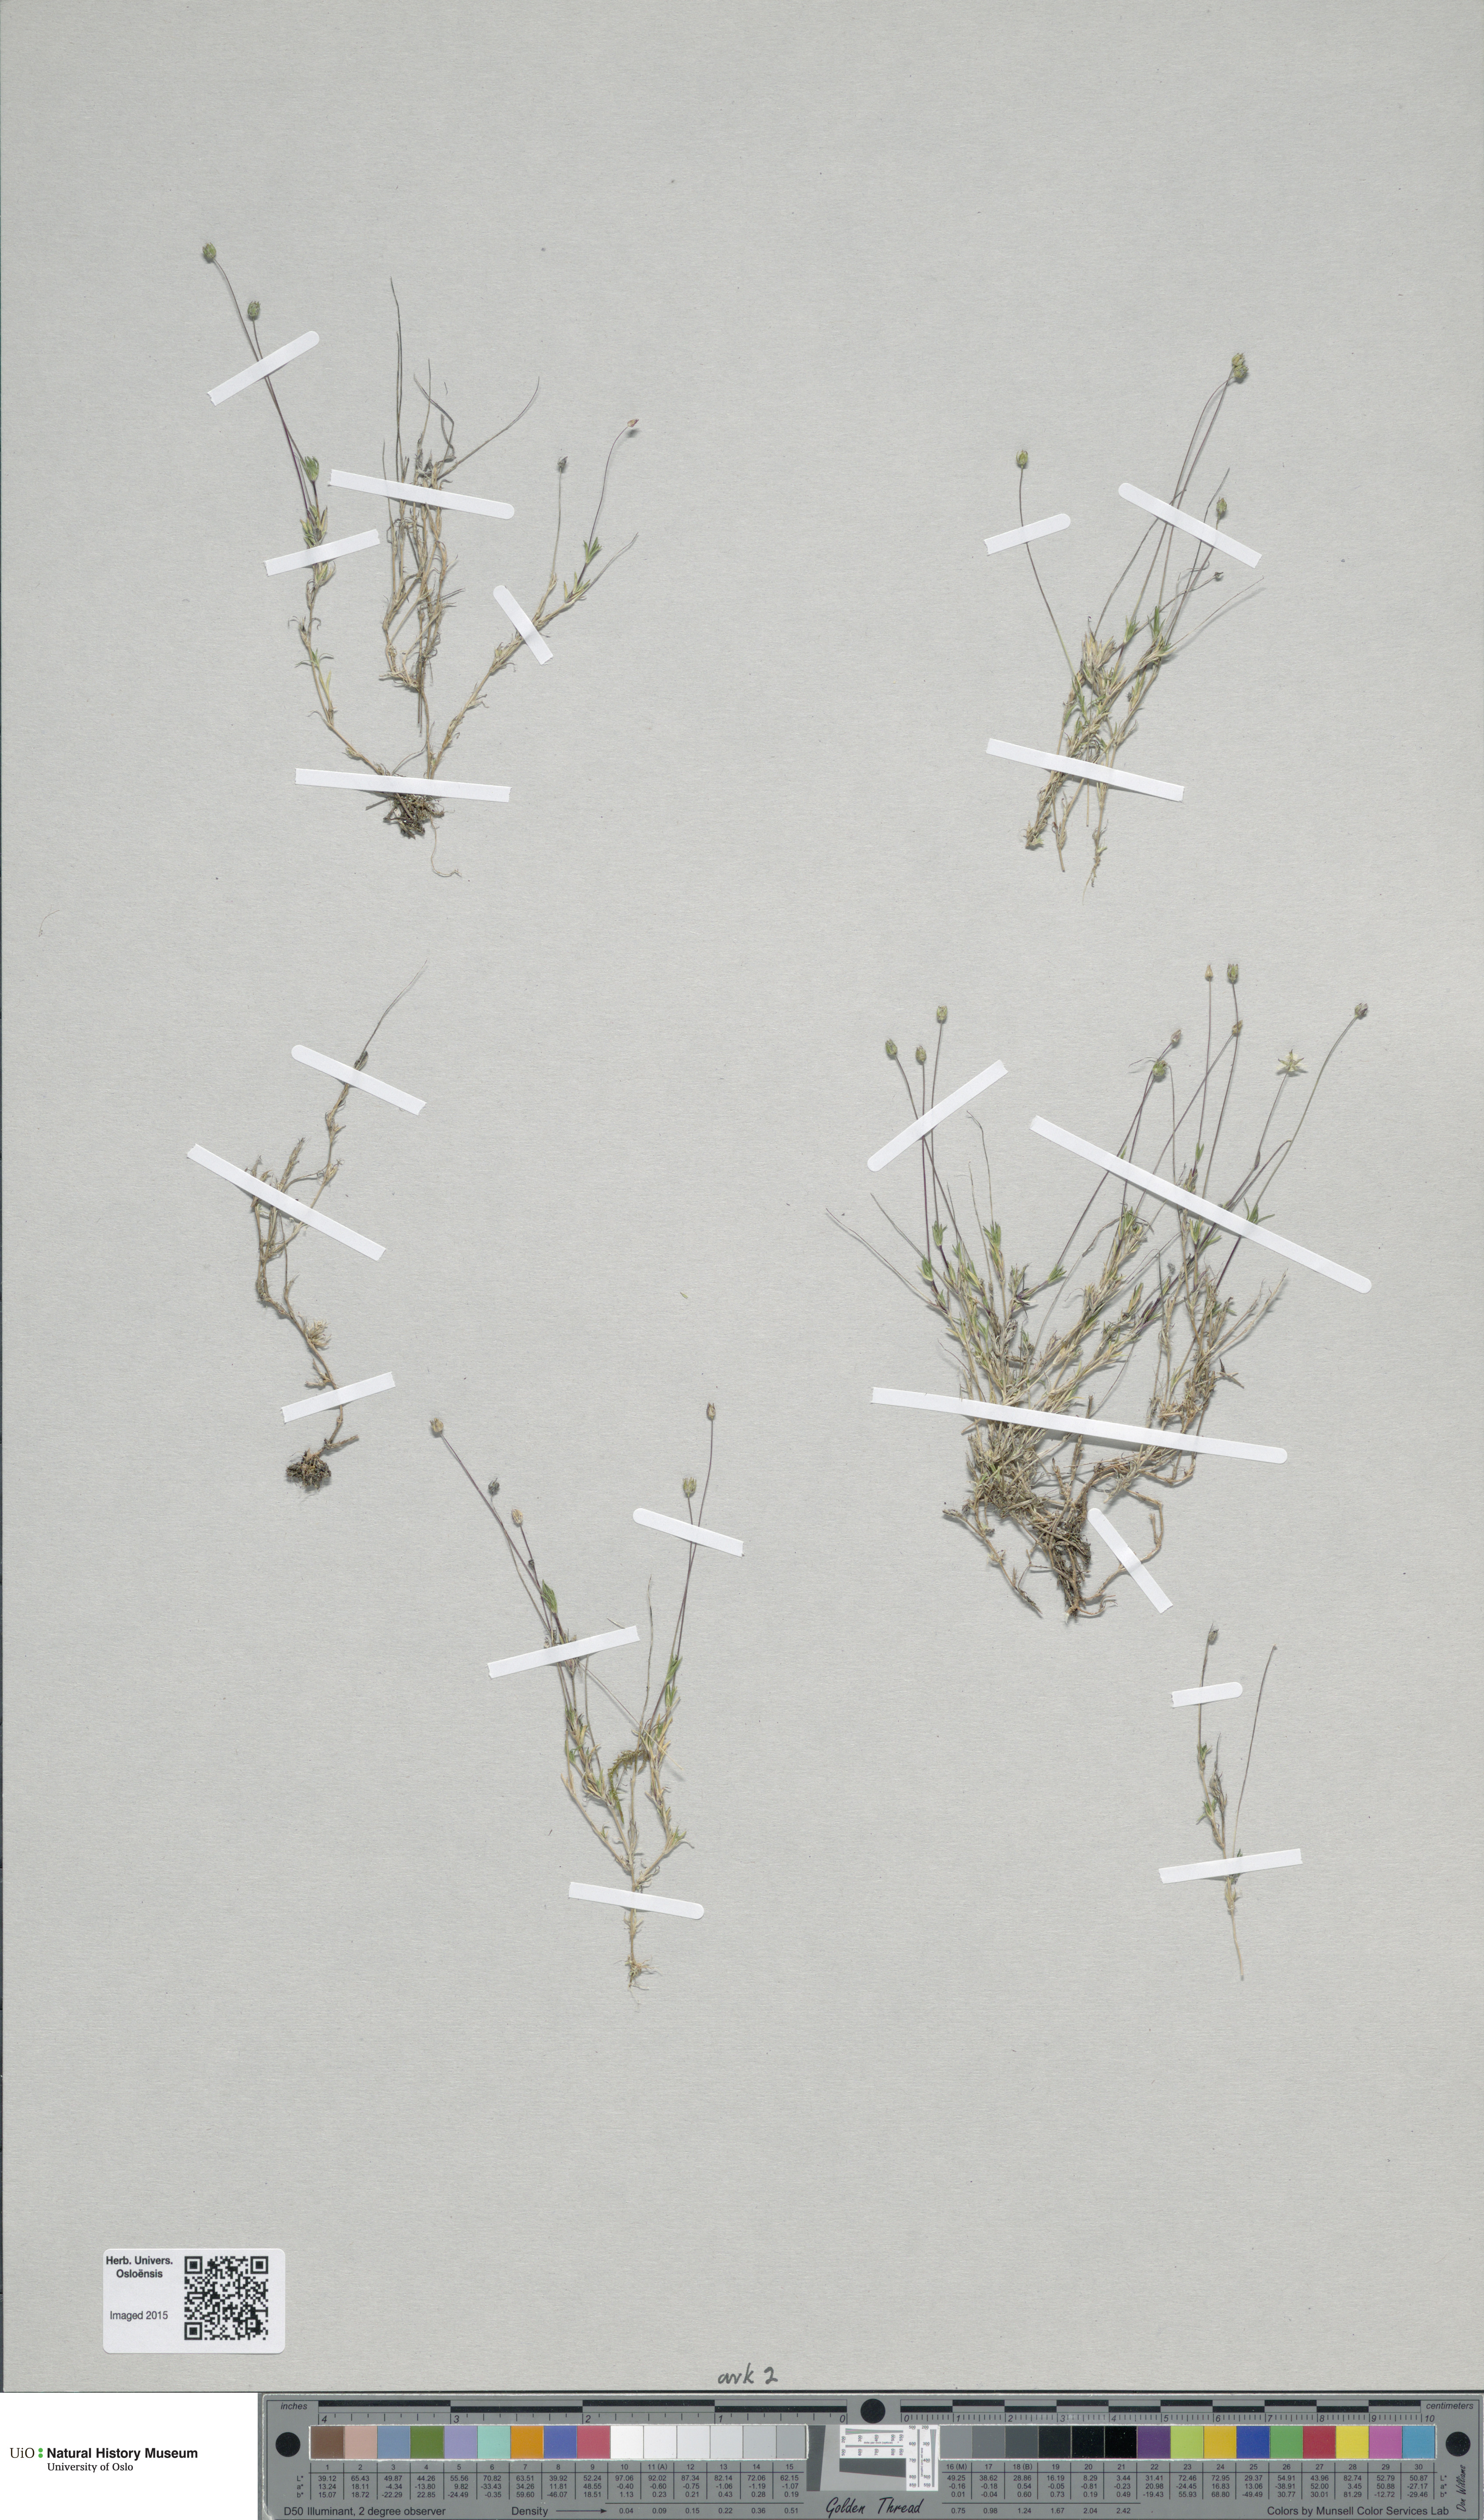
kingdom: Plantae
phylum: Tracheophyta
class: Magnoliopsida
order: Caryophyllales
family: Caryophyllaceae
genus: Sabulina
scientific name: Sabulina stricta
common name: Bog sandwort
